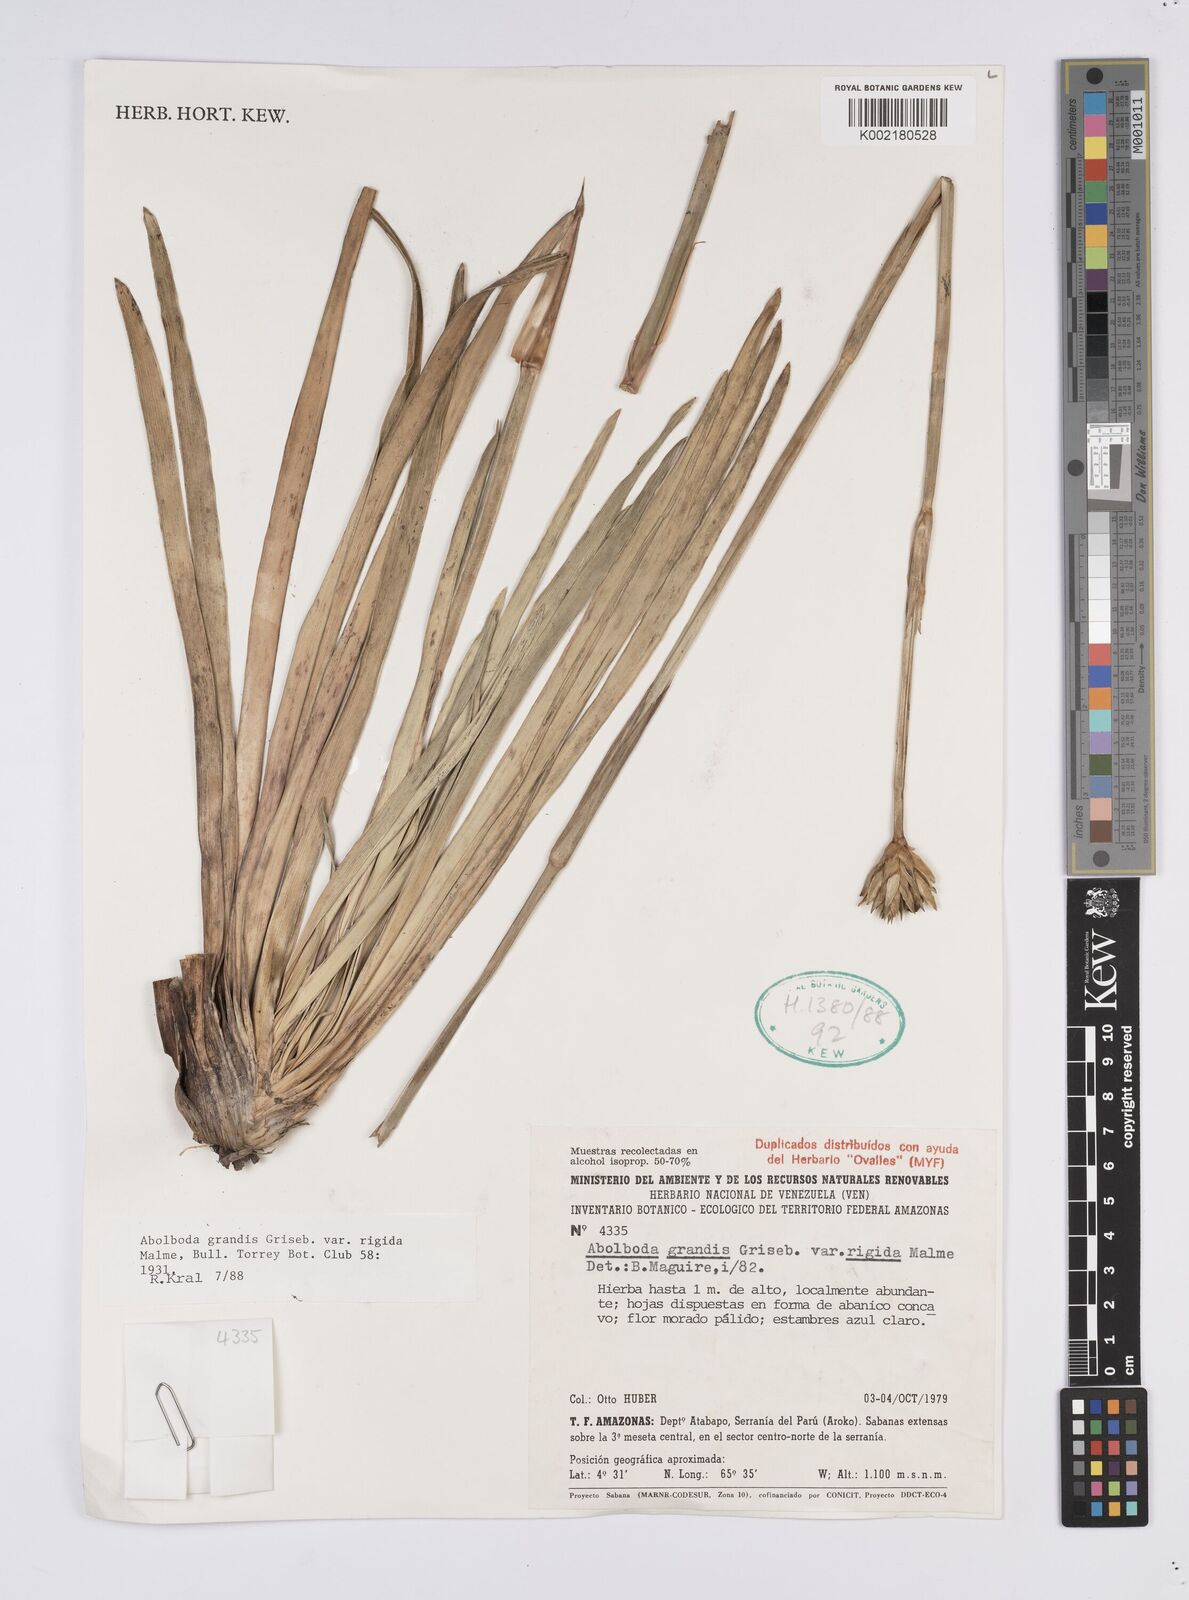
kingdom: Plantae
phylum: Tracheophyta
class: Liliopsida
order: Poales
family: Xyridaceae
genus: Abolboda
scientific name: Abolboda grandis
